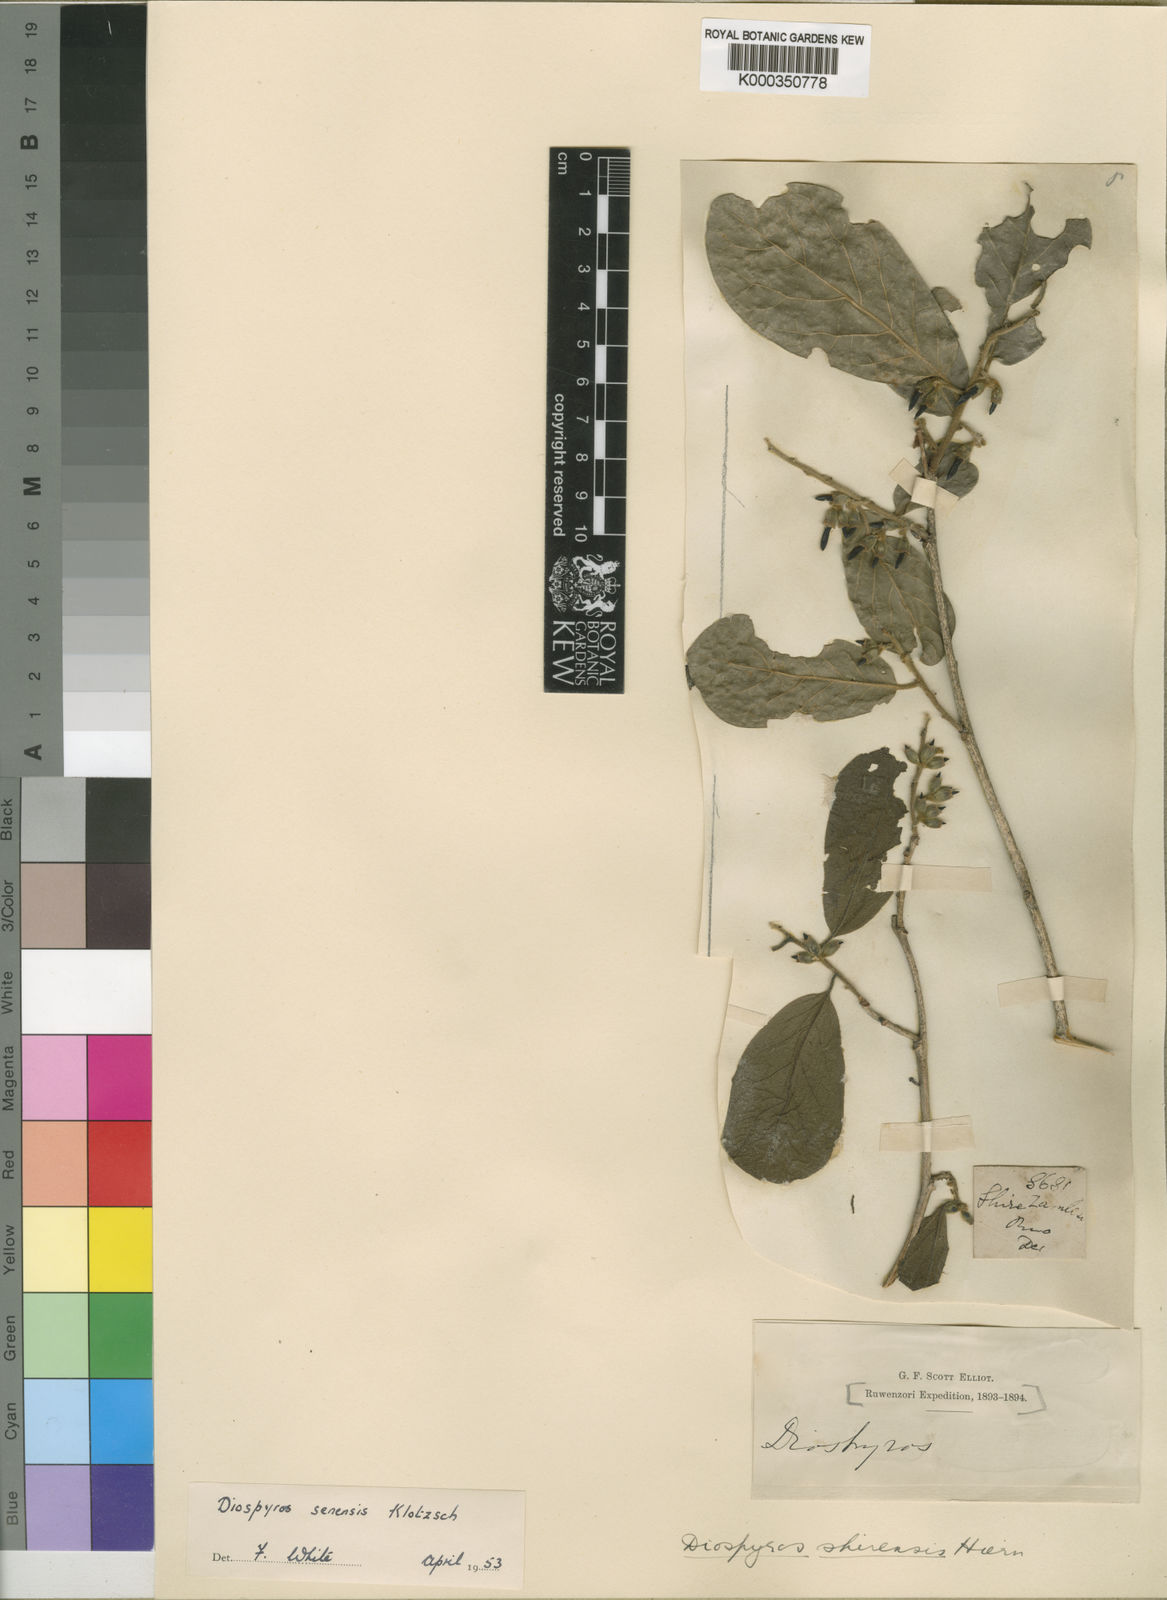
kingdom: Plantae
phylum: Tracheophyta
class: Magnoliopsida
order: Ericales
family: Ebenaceae
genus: Diospyros
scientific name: Diospyros senensis
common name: Spiny jackal berry
